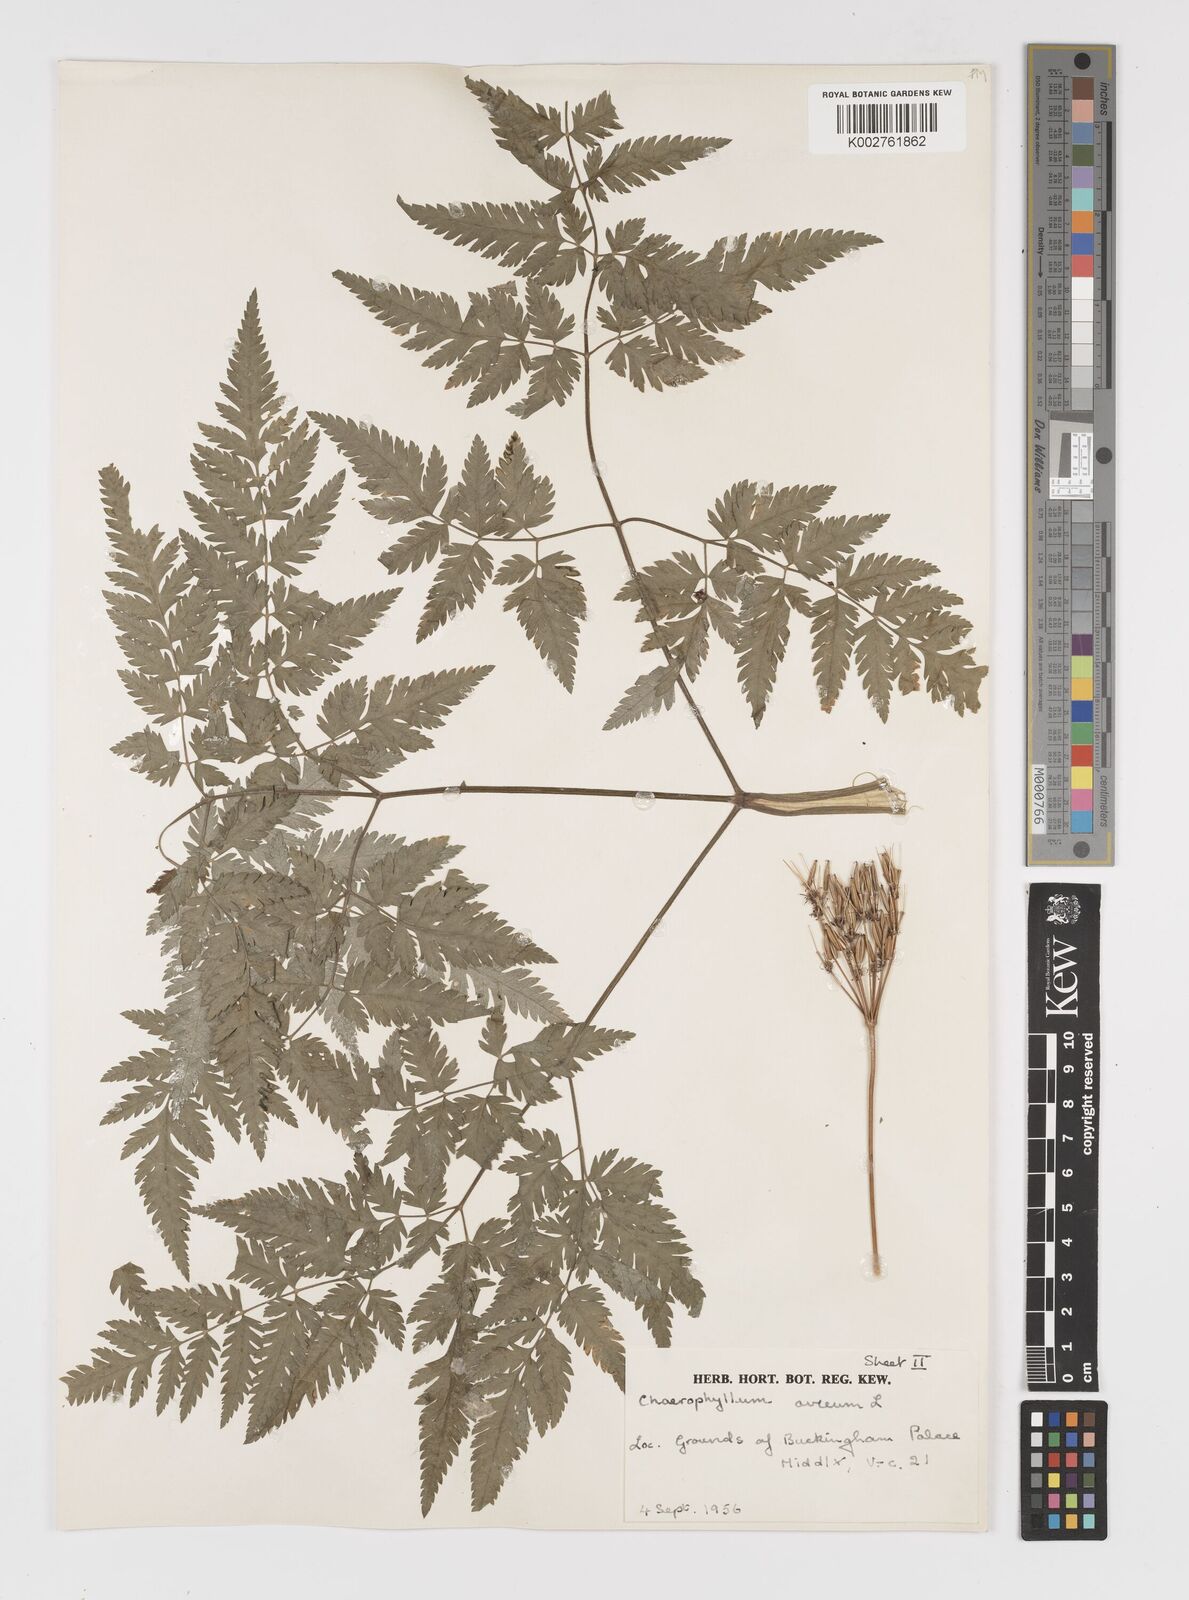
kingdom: Plantae
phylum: Tracheophyta
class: Magnoliopsida
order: Apiales
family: Apiaceae
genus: Chaerophyllum
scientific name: Chaerophyllum aureum
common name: Golden chervil
